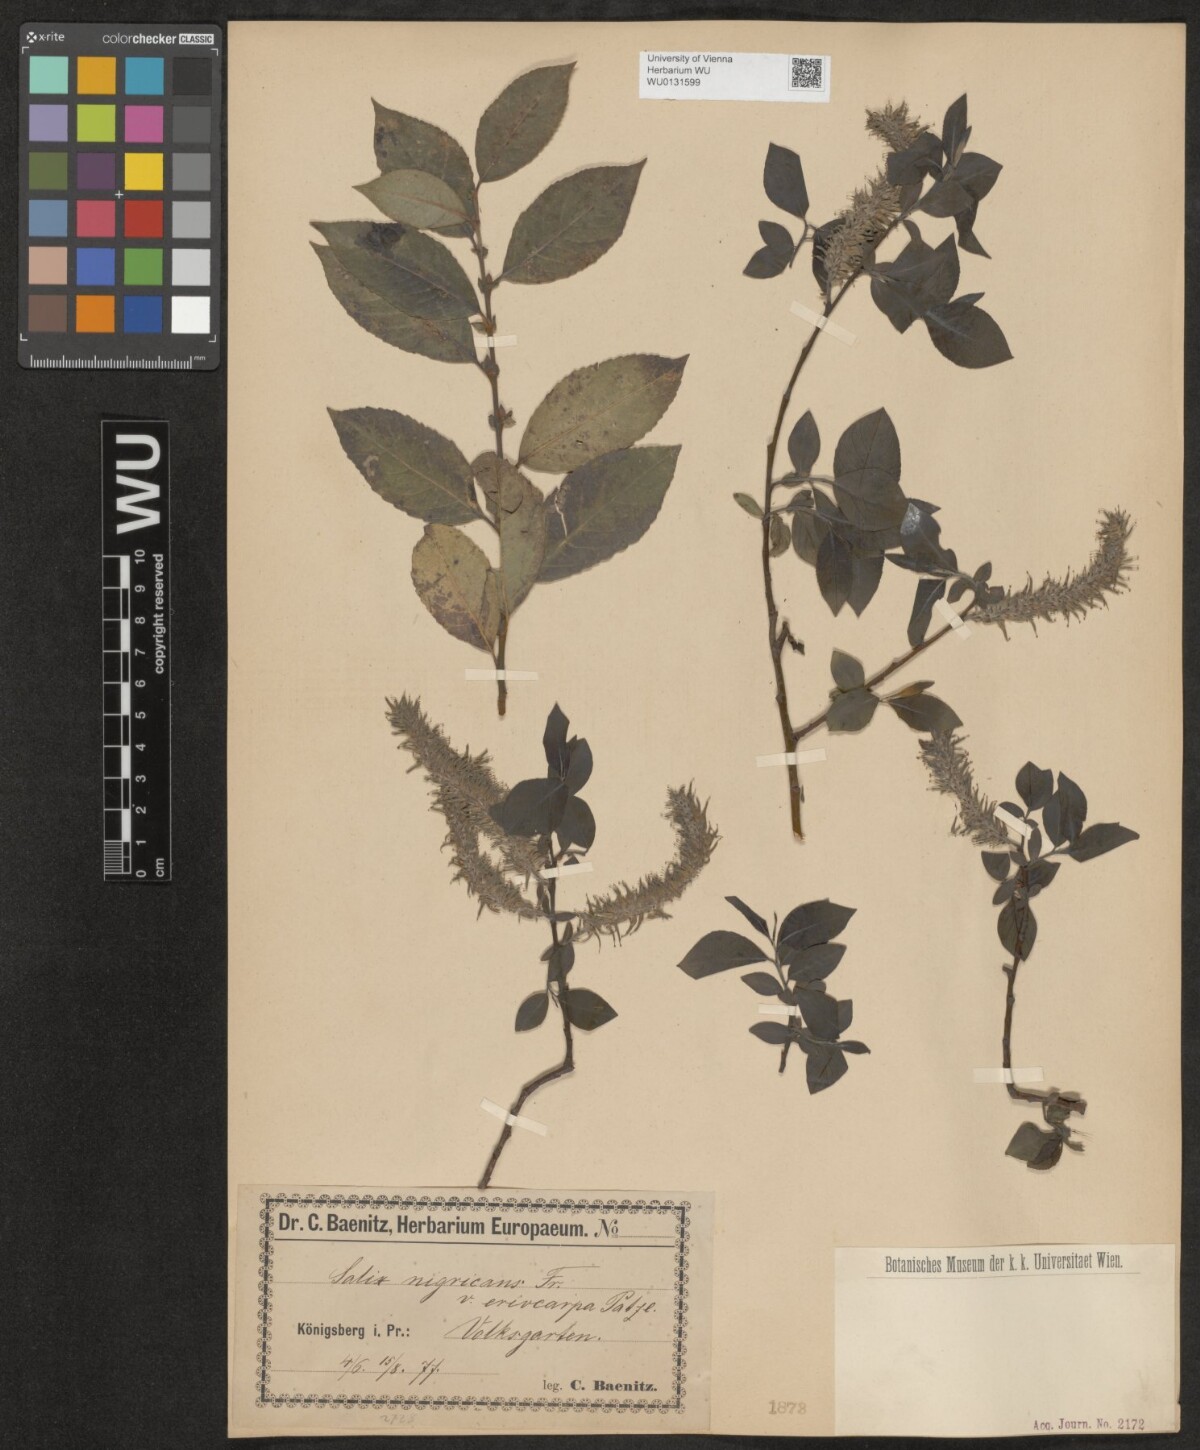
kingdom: Plantae
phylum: Tracheophyta
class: Magnoliopsida
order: Malpighiales
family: Salicaceae
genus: Salix
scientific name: Salix myrsinifolia
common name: Dark-leaved willow
